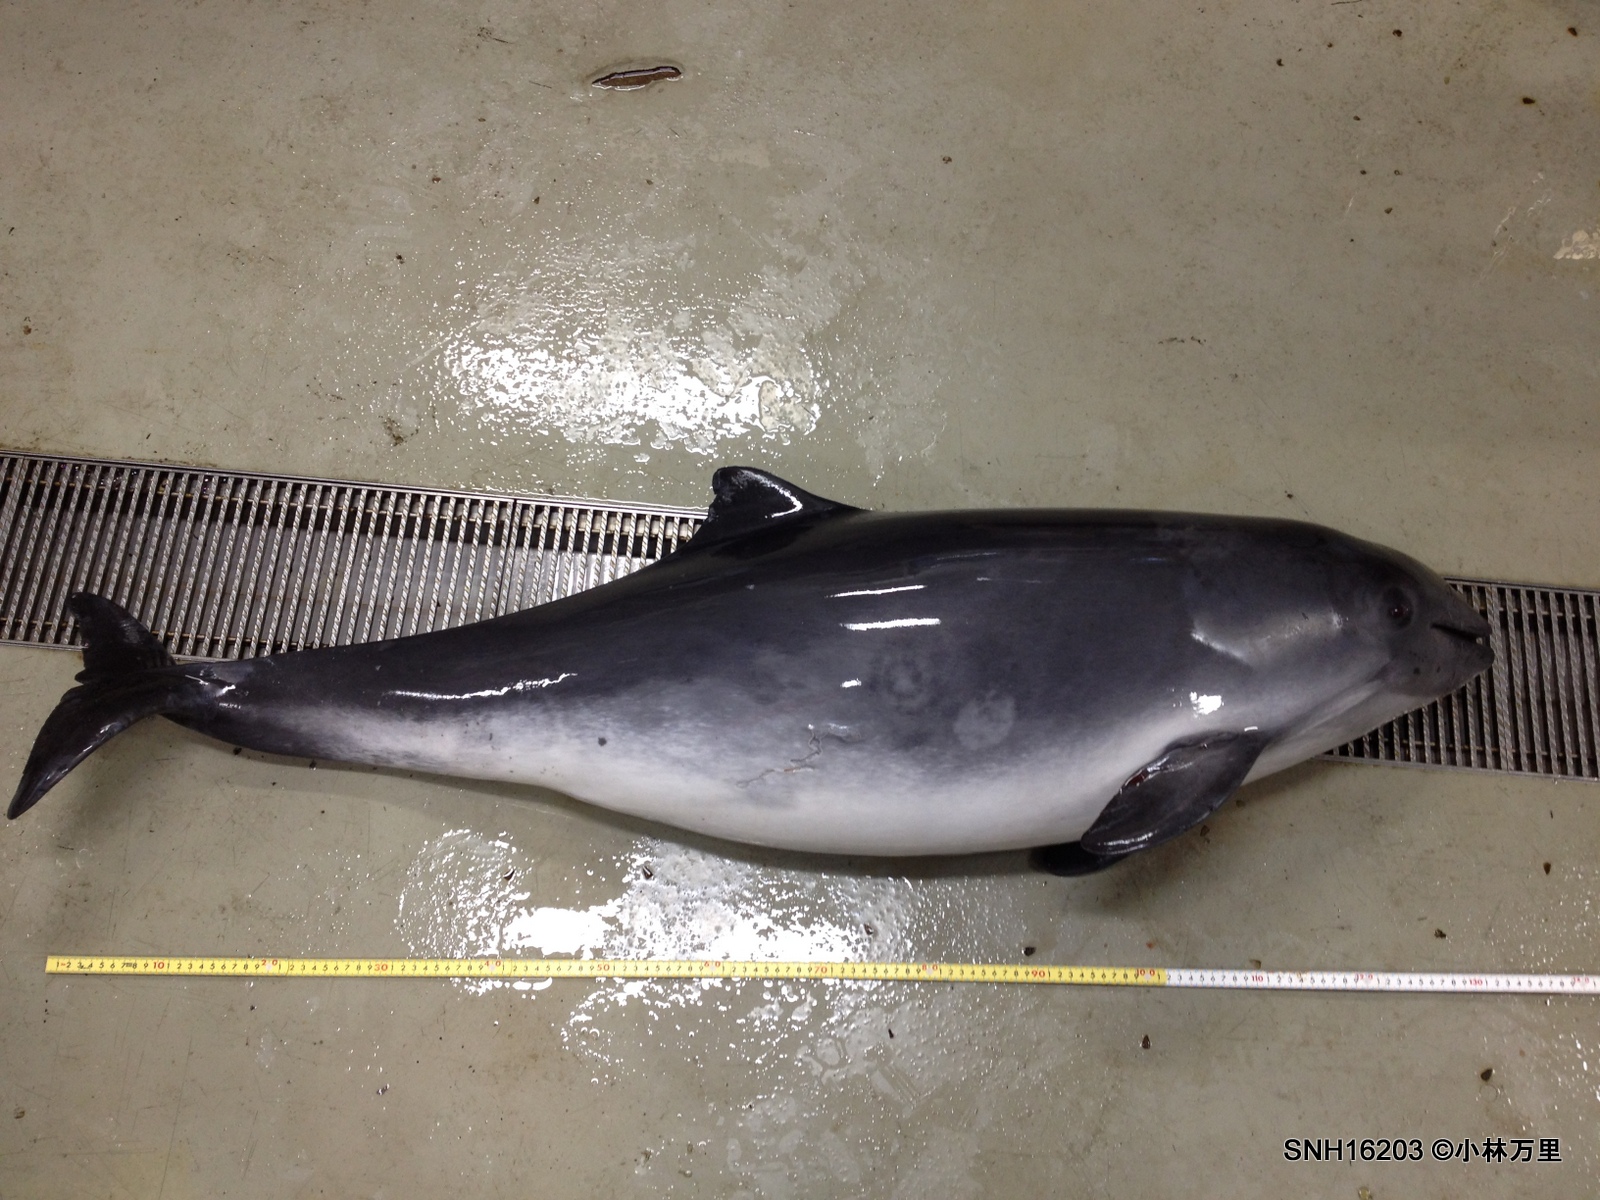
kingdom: Animalia
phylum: Chordata
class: Mammalia
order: Cetacea
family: Phocoenidae
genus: Phocoena
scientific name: Phocoena phocoena
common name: Harbour porpoise
